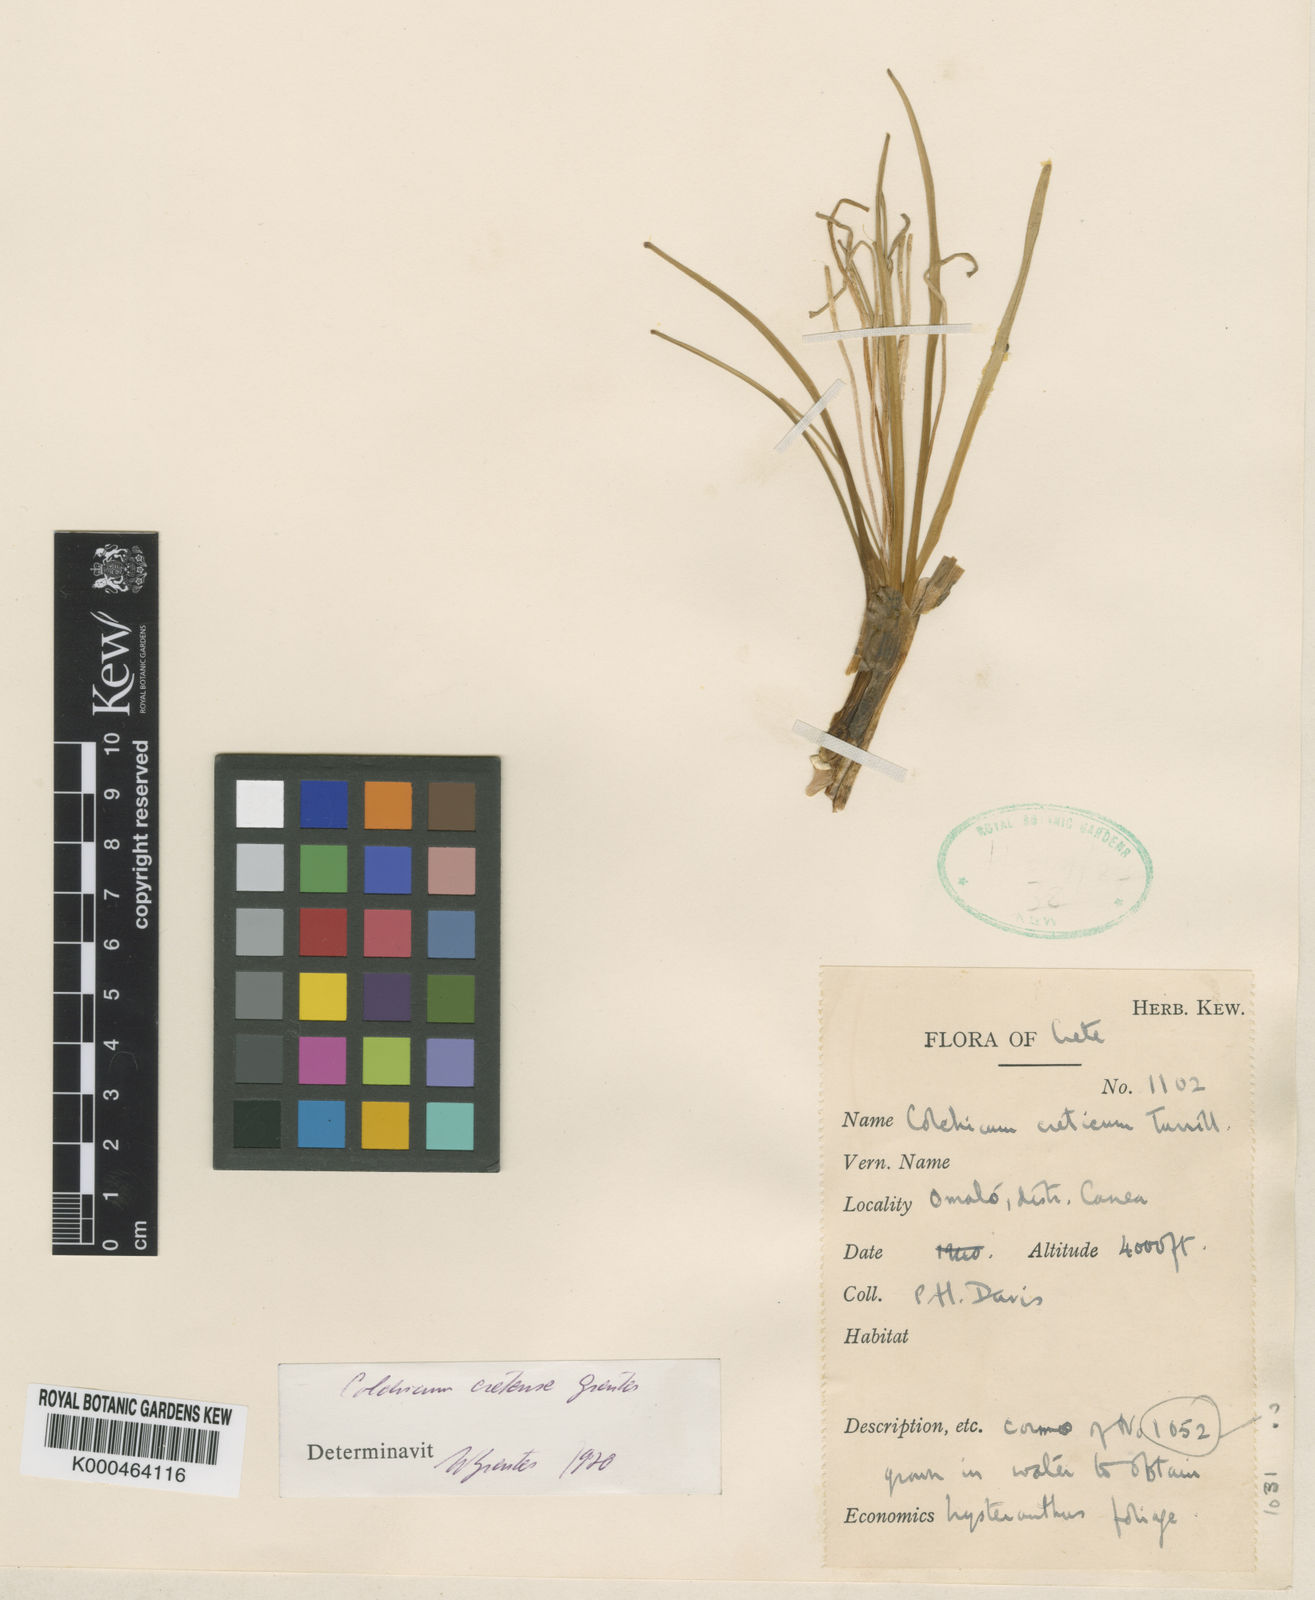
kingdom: Plantae
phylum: Tracheophyta
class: Liliopsida
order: Liliales
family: Colchicaceae
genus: Colchicum
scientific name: Colchicum cupanii
